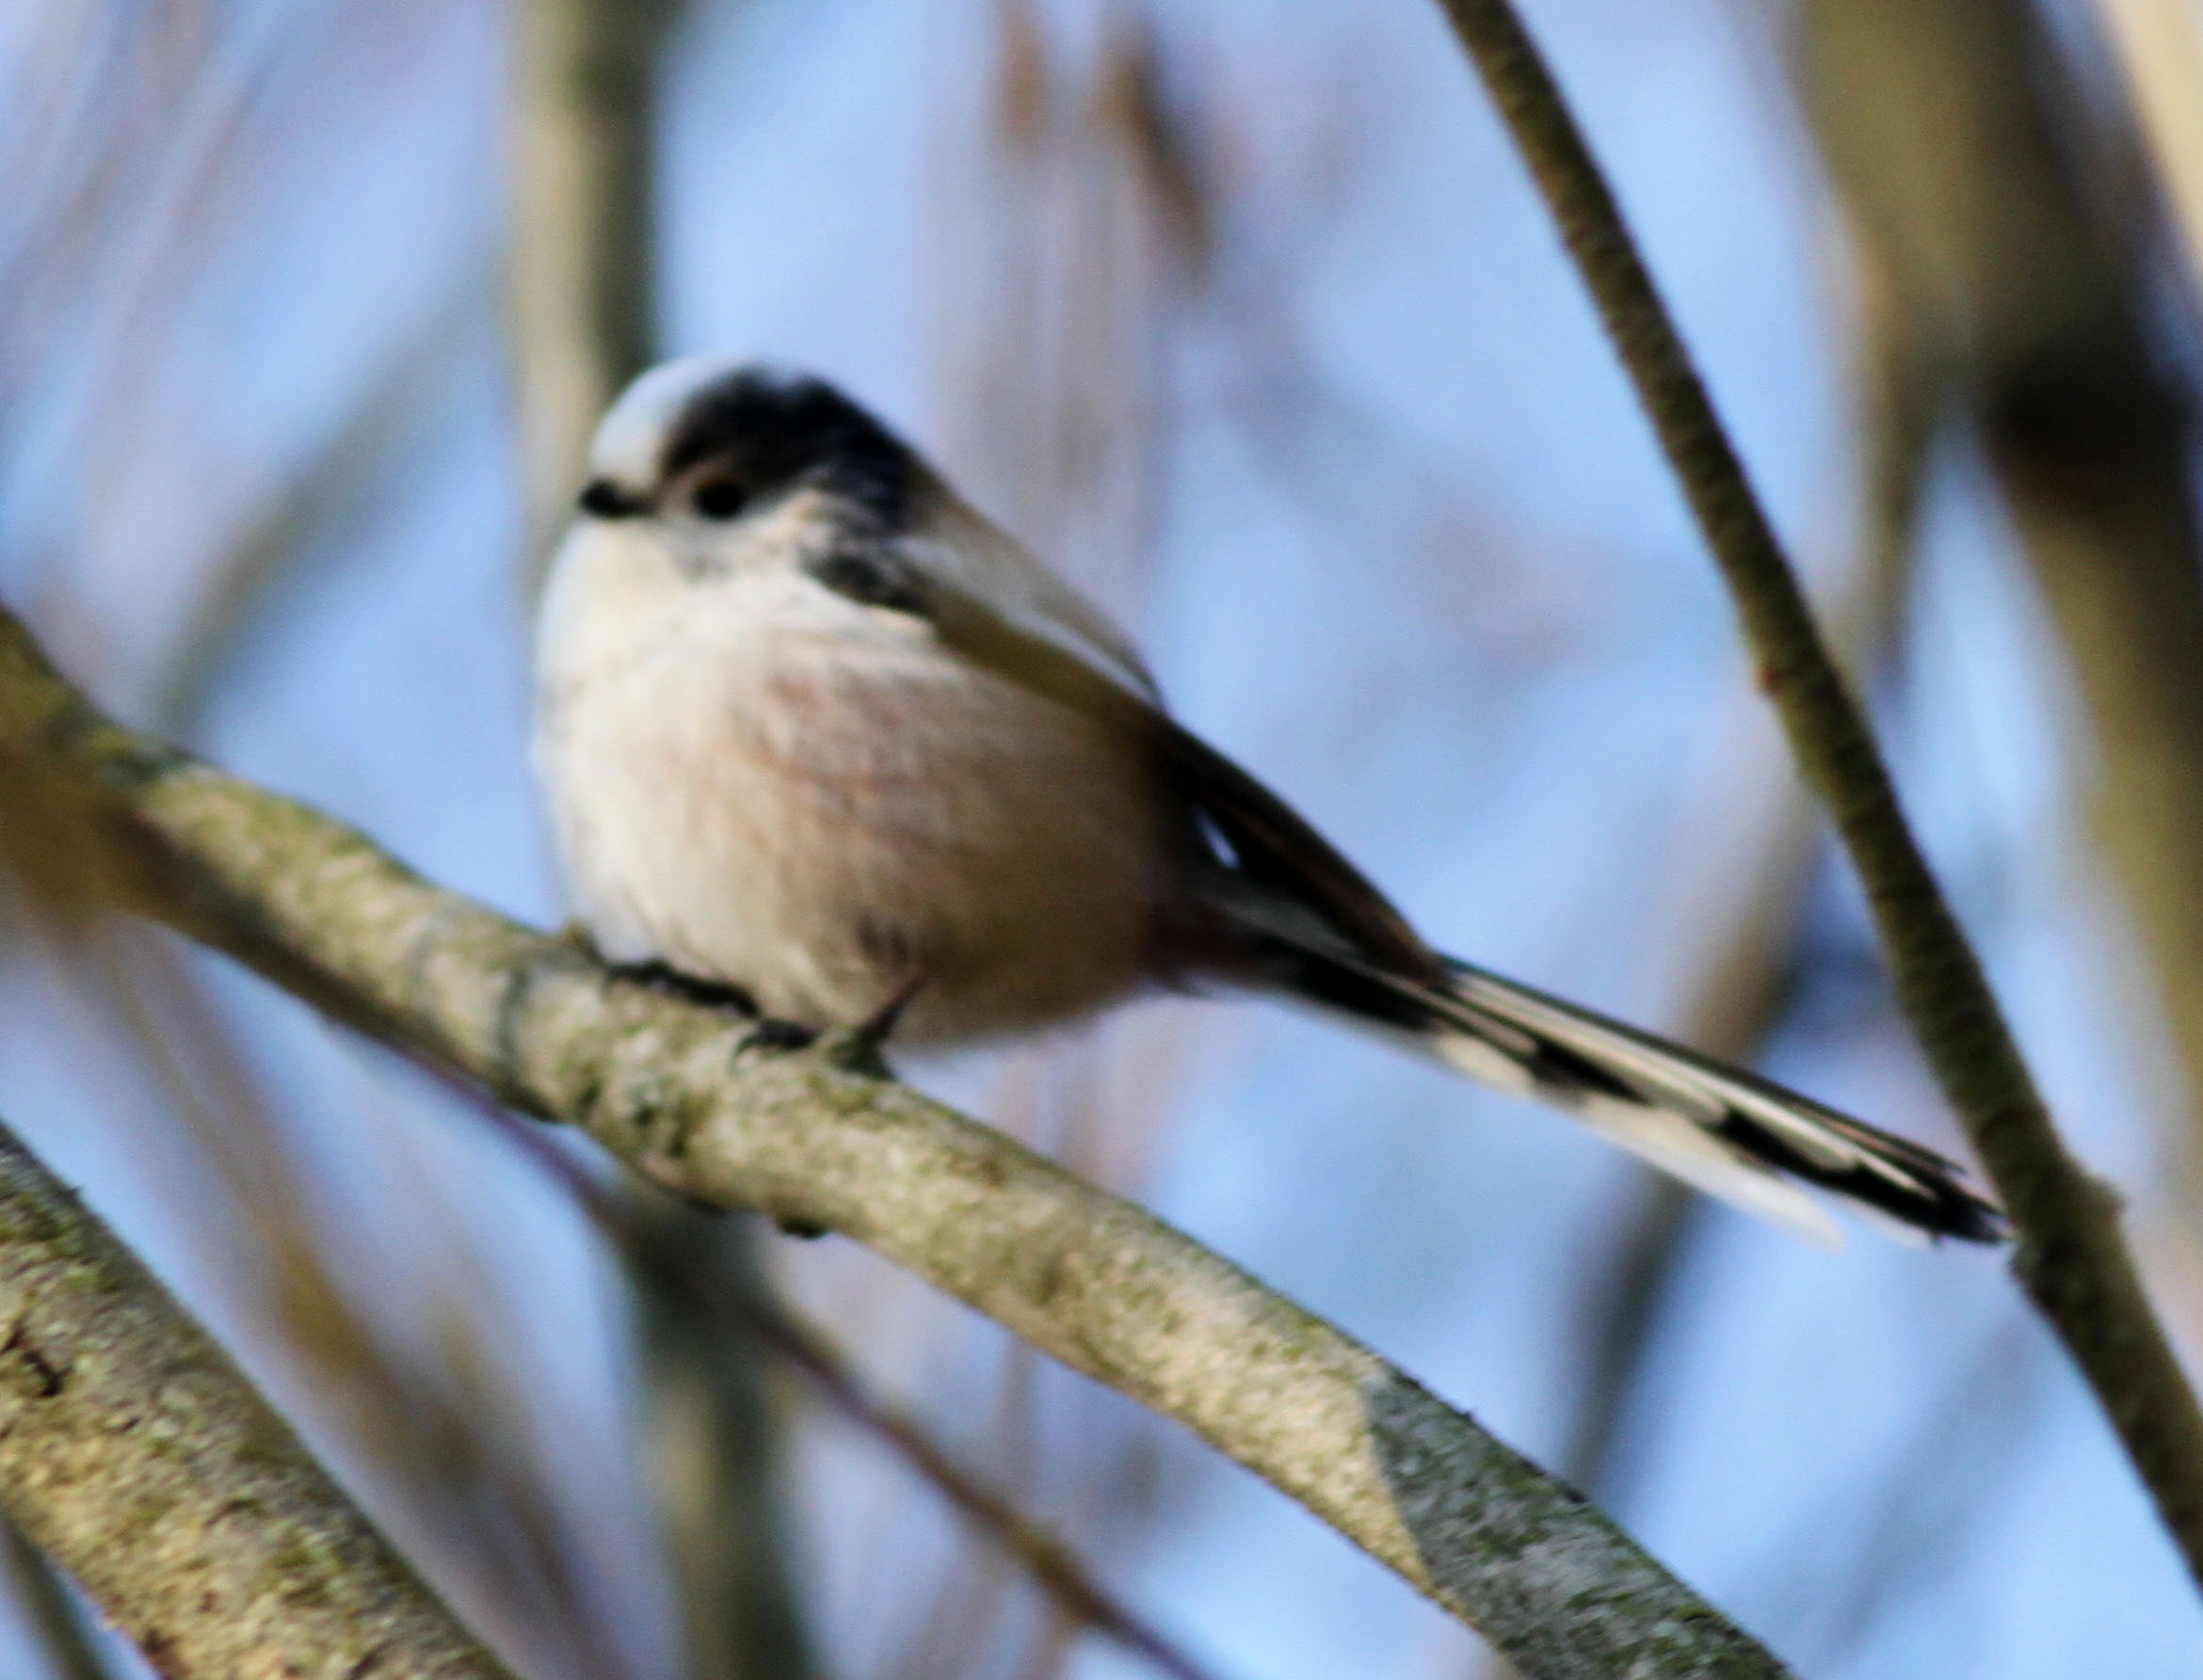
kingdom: Animalia
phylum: Chordata
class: Aves
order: Passeriformes
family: Aegithalidae
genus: Aegithalos
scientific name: Aegithalos caudatus
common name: Halemejse
